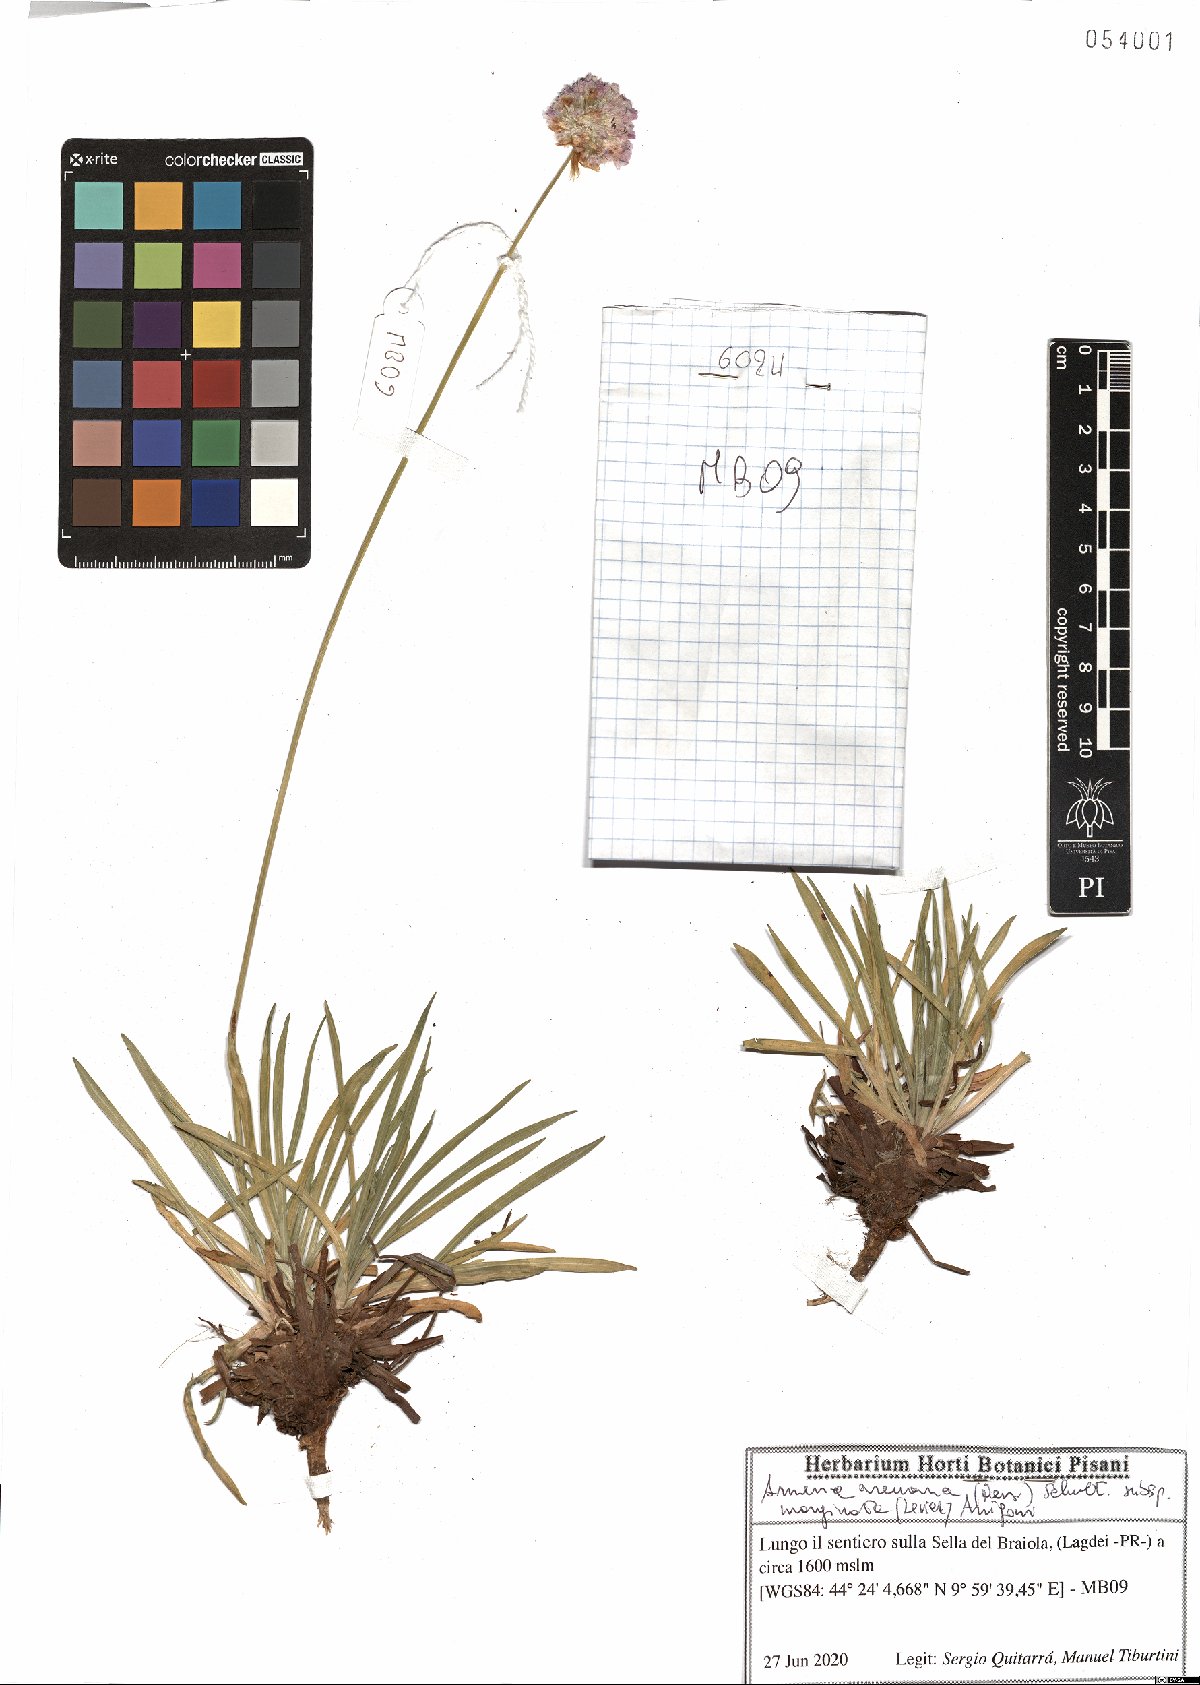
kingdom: Plantae
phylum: Tracheophyta
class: Magnoliopsida
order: Caryophyllales
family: Plumbaginaceae
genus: Armeria
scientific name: Armeria arenaria
